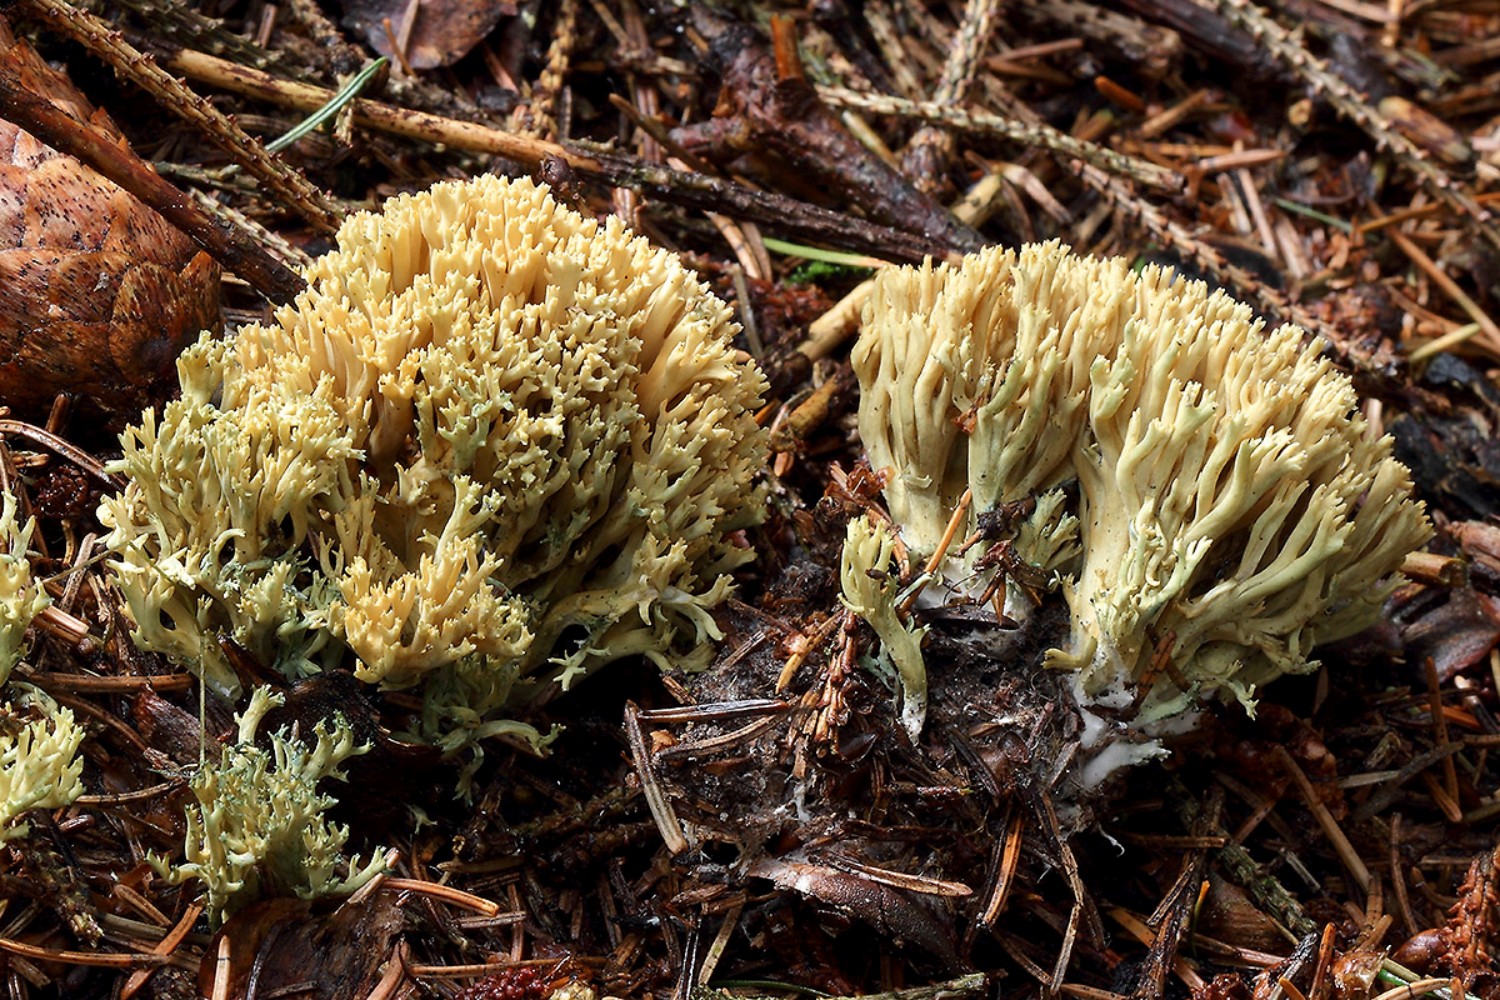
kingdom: Fungi
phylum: Basidiomycota
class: Agaricomycetes
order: Gomphales
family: Gomphaceae
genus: Phaeoclavulina
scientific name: Phaeoclavulina abietina
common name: gulgrøn koralsvamp
